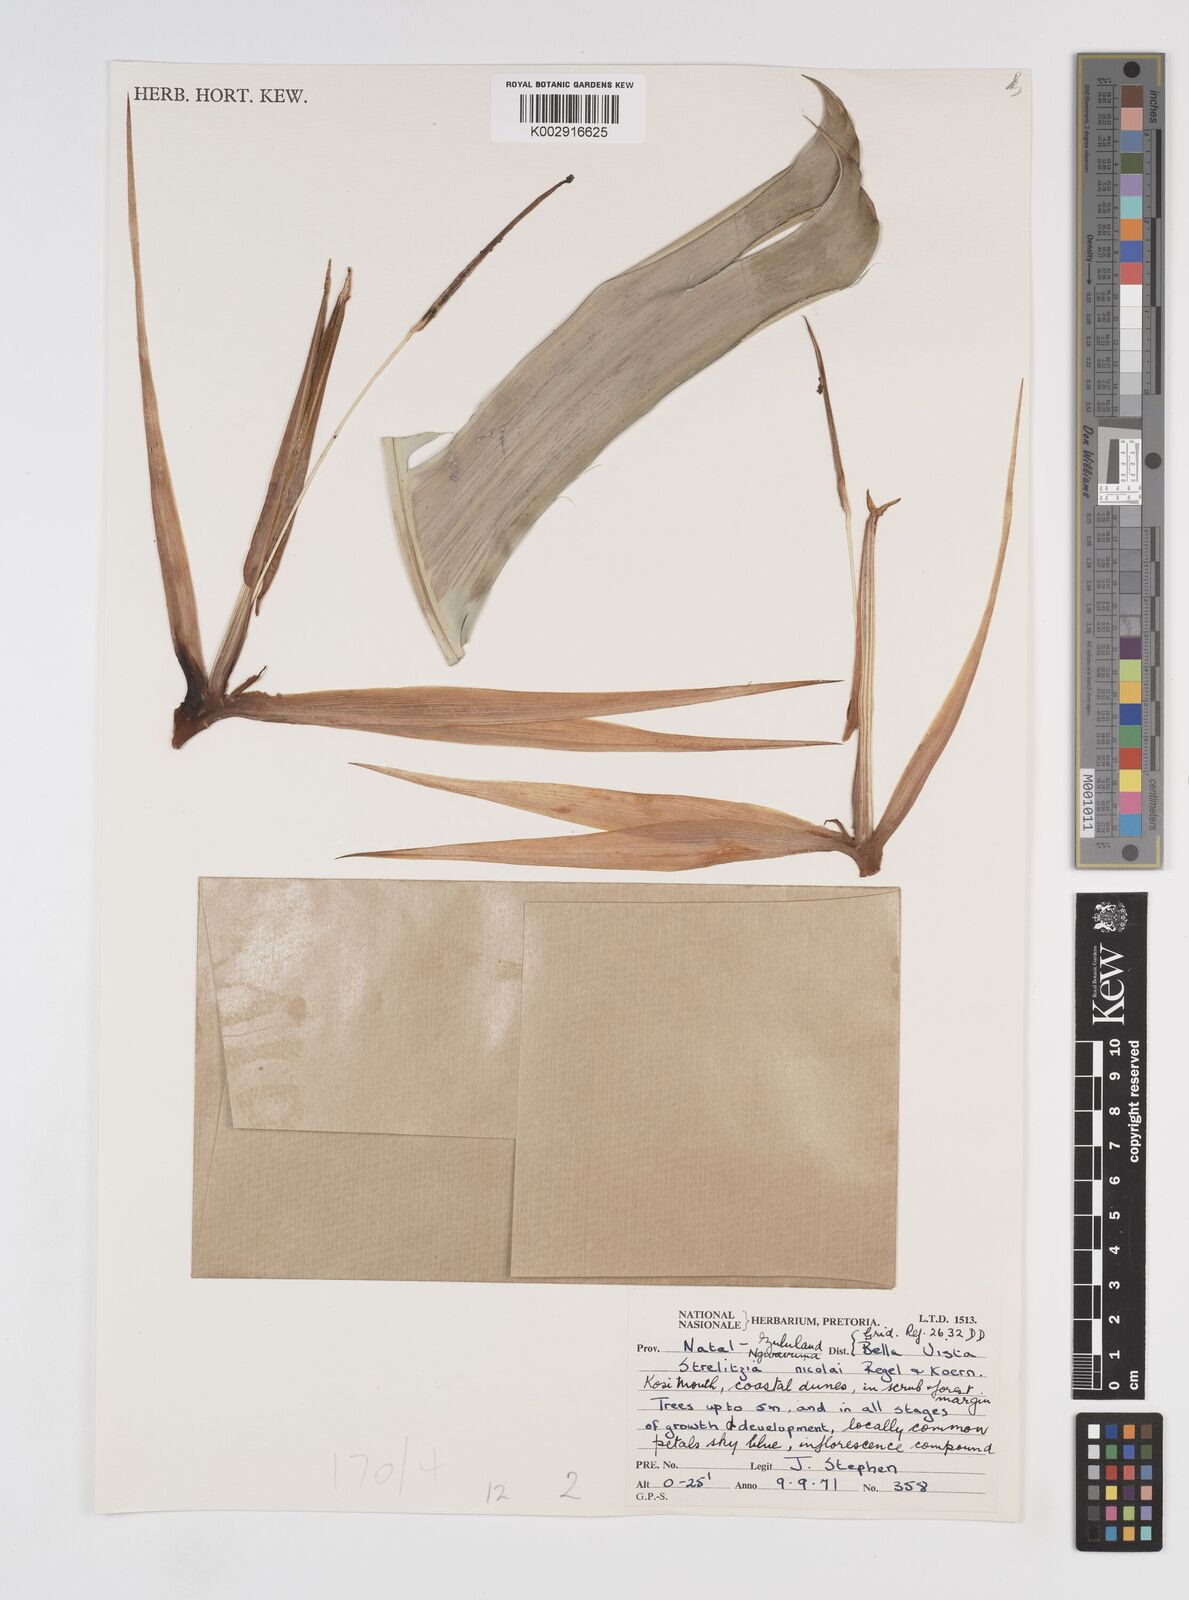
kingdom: Plantae
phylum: Tracheophyta
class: Liliopsida
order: Zingiberales
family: Strelitziaceae
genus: Strelitzia
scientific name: Strelitzia nicolai
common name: Bird-of-paradise tree
